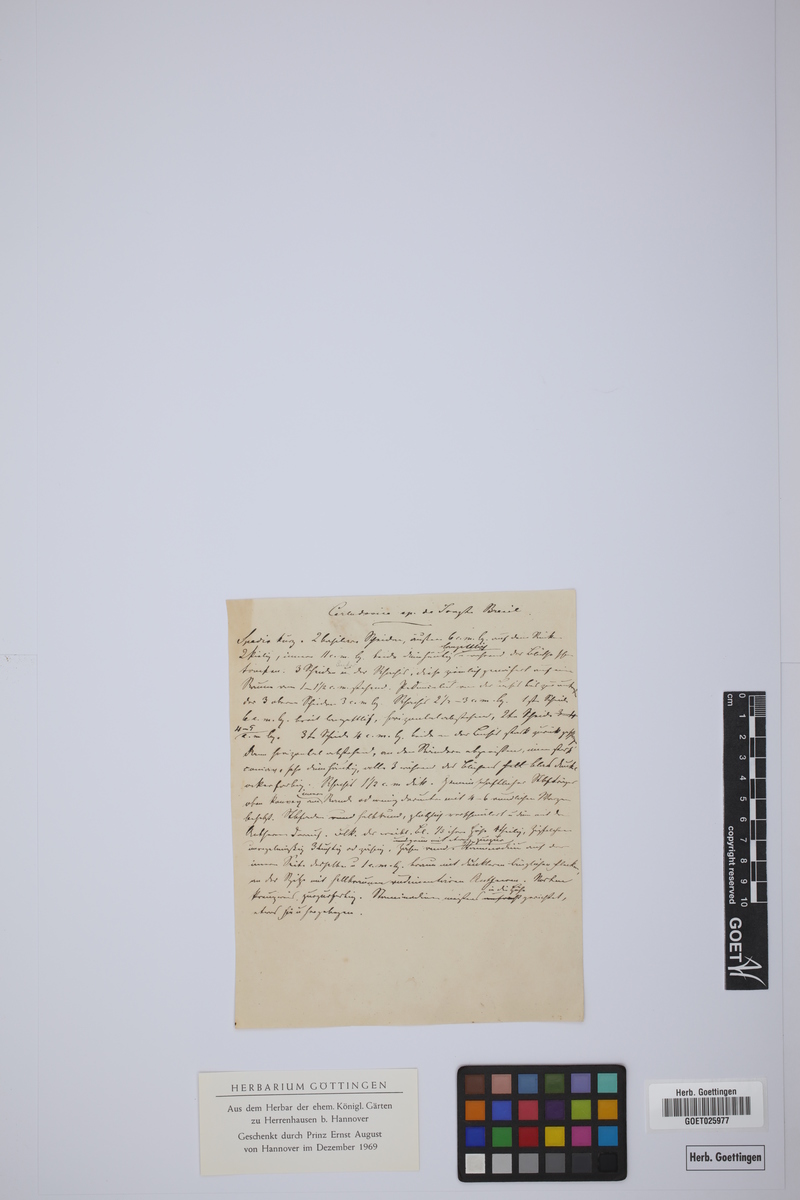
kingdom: Plantae
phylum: Tracheophyta
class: Liliopsida
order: Pandanales
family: Cyclanthaceae
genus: Carludovica
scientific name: Carludovica phacospatha
